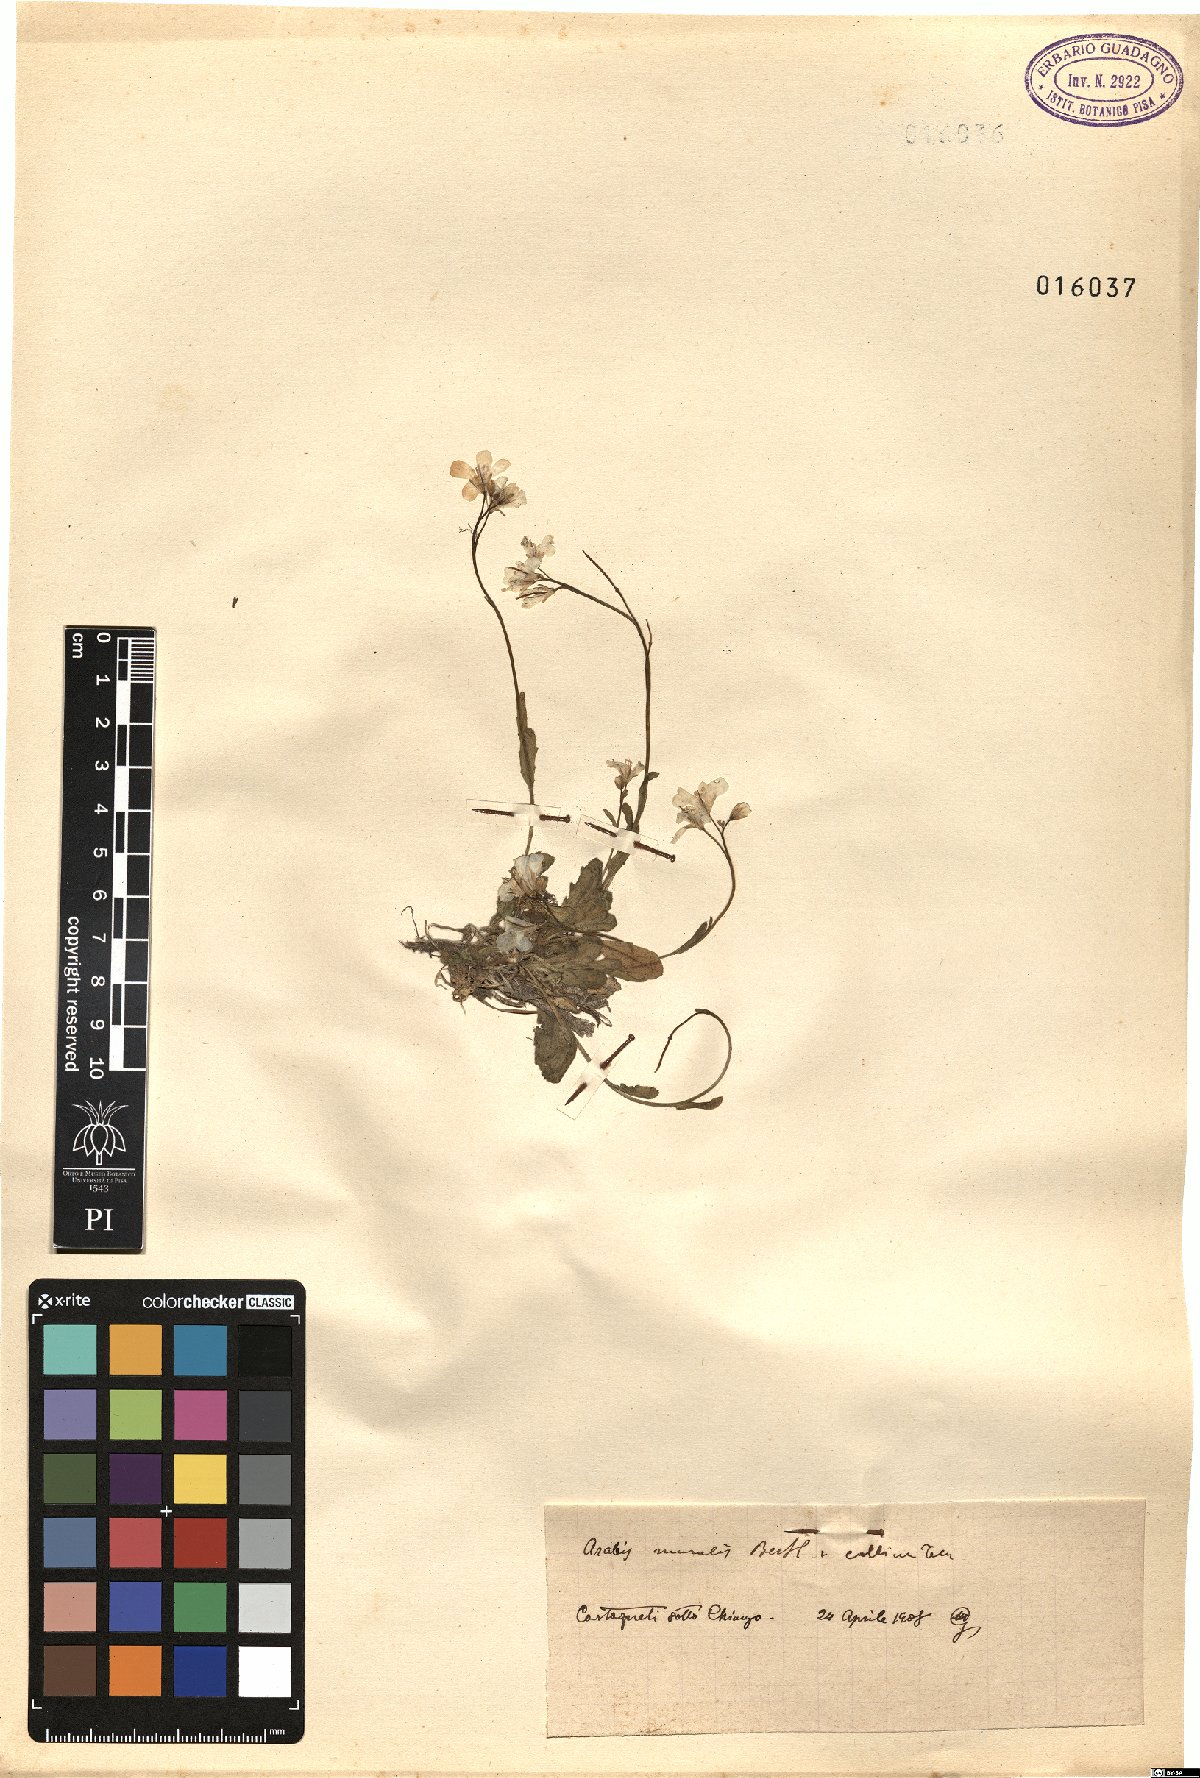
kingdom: Plantae
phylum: Tracheophyta
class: Magnoliopsida
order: Brassicales
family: Brassicaceae
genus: Arabis
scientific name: Arabis collina
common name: Rosy cress
